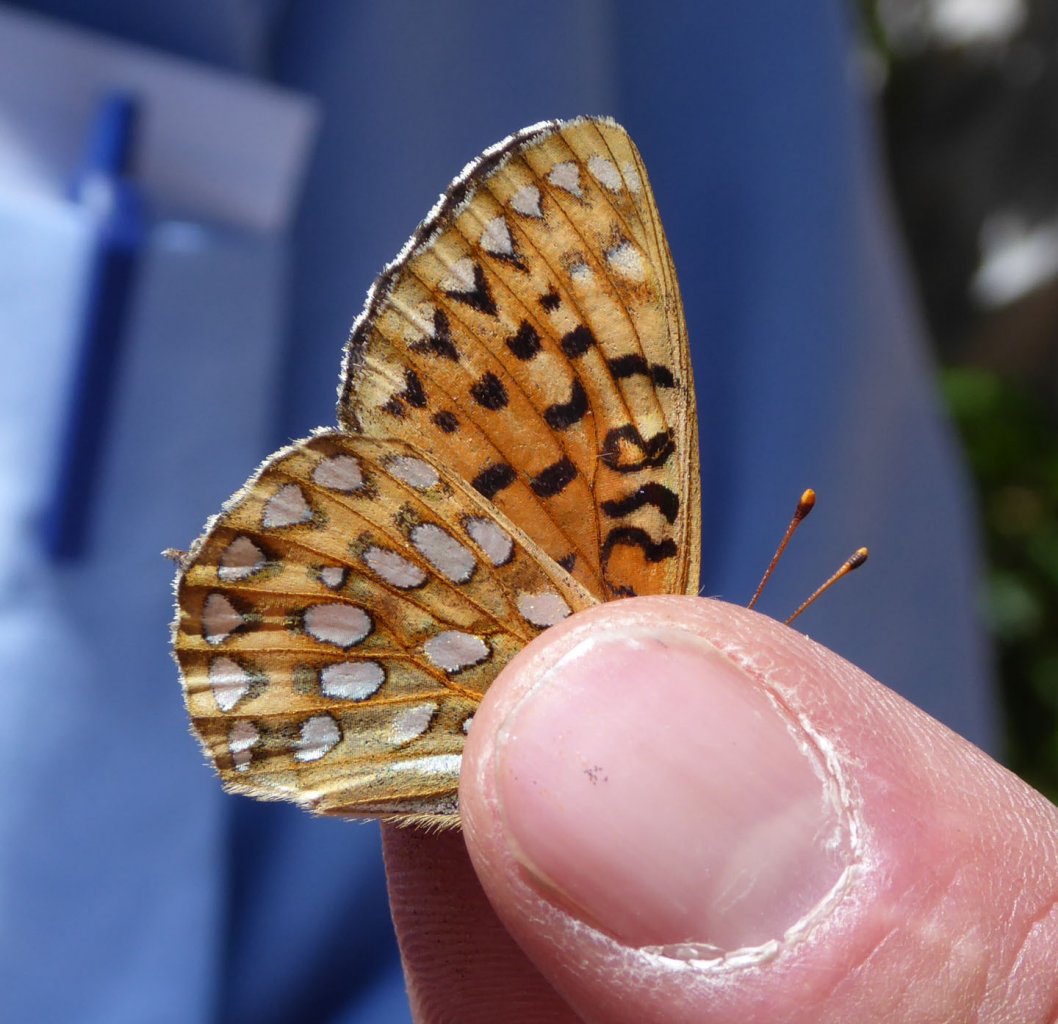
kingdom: Animalia
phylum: Arthropoda
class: Insecta
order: Lepidoptera
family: Nymphalidae
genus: Speyeria
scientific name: Speyeria mormonia
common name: Mormon Fritillary
